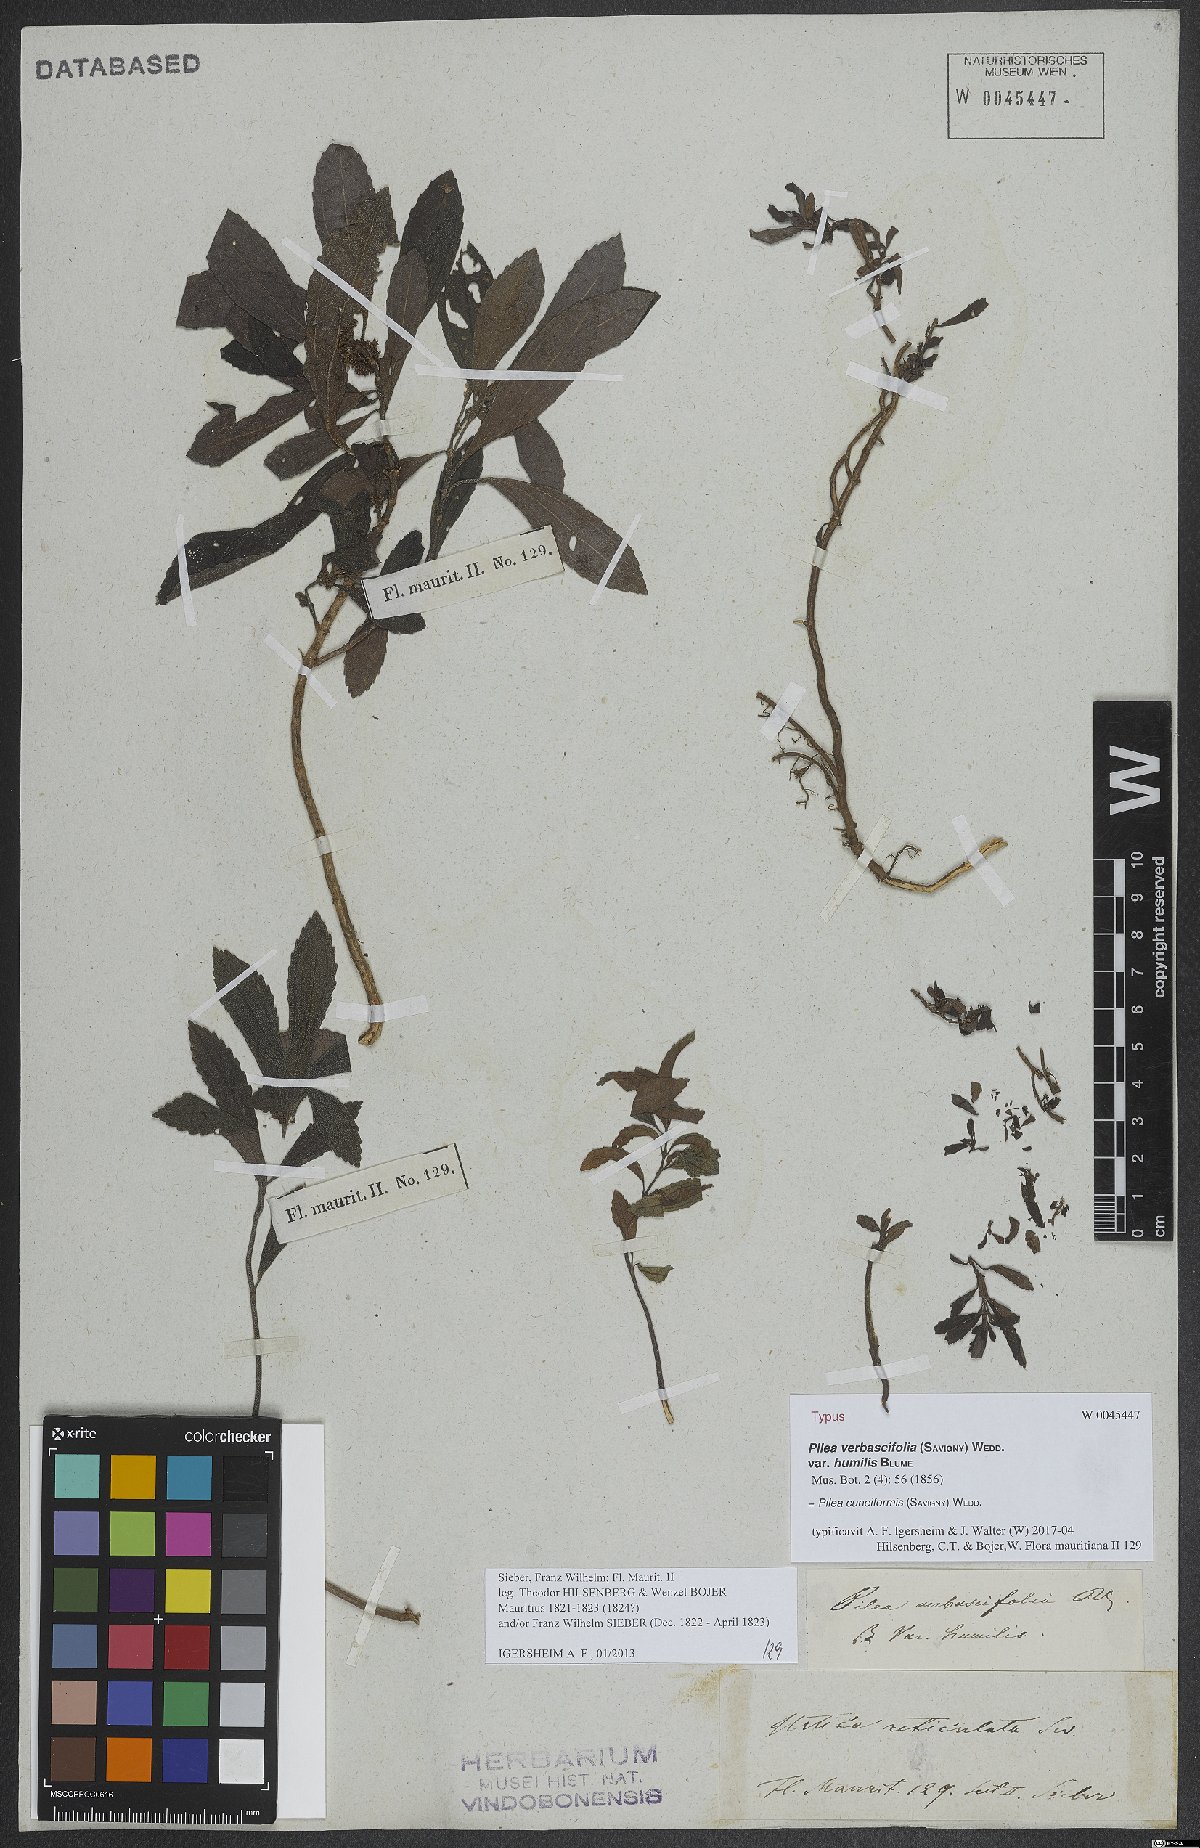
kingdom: Plantae
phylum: Tracheophyta
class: Magnoliopsida
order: Rosales
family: Urticaceae
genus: Pilea
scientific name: Pilea cuneiformis
